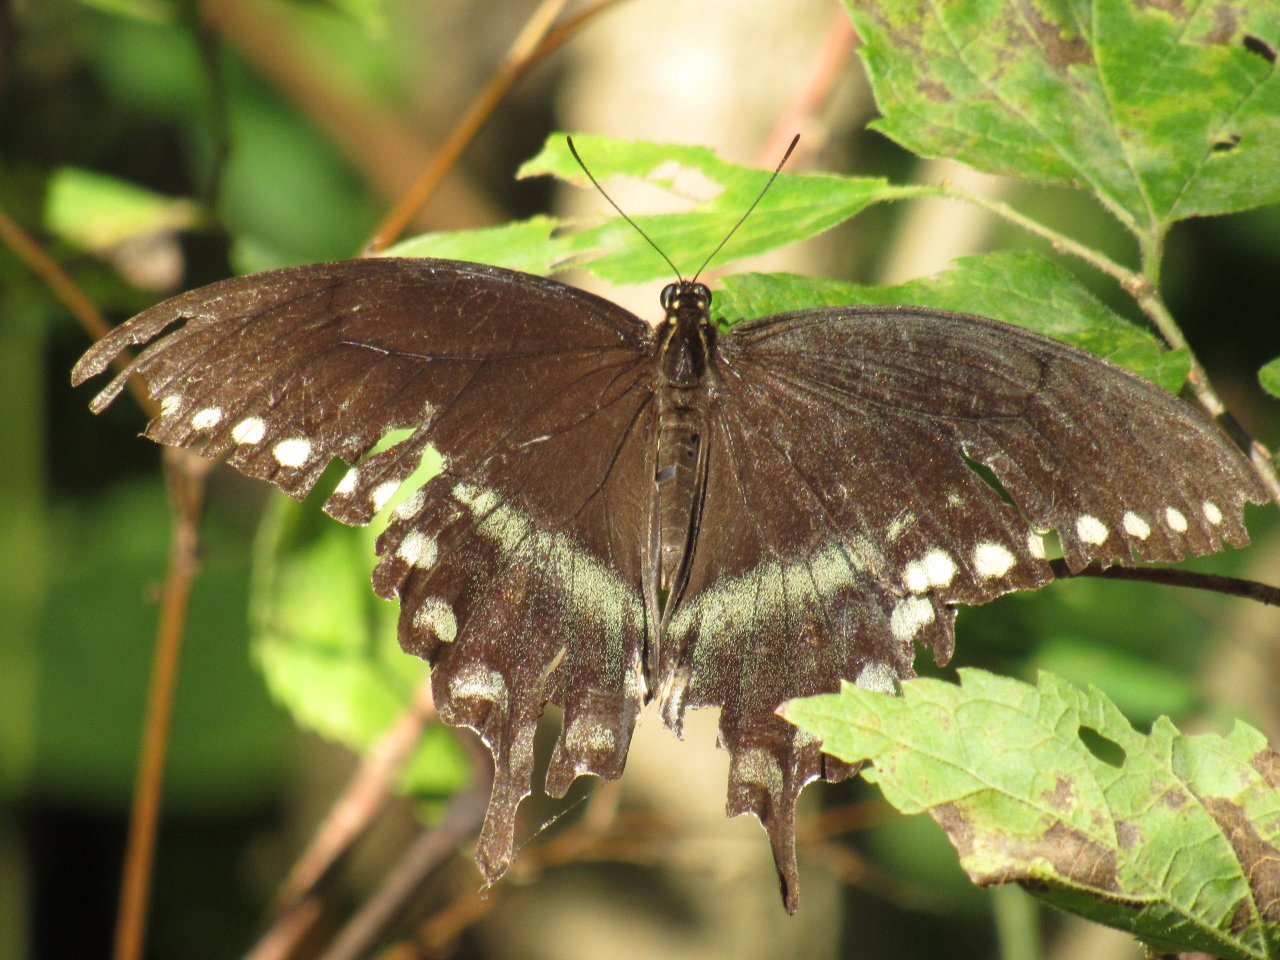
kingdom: Animalia
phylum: Arthropoda
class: Insecta
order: Lepidoptera
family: Papilionidae
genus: Pterourus
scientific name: Pterourus troilus
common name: Spicebush Swallowtail
